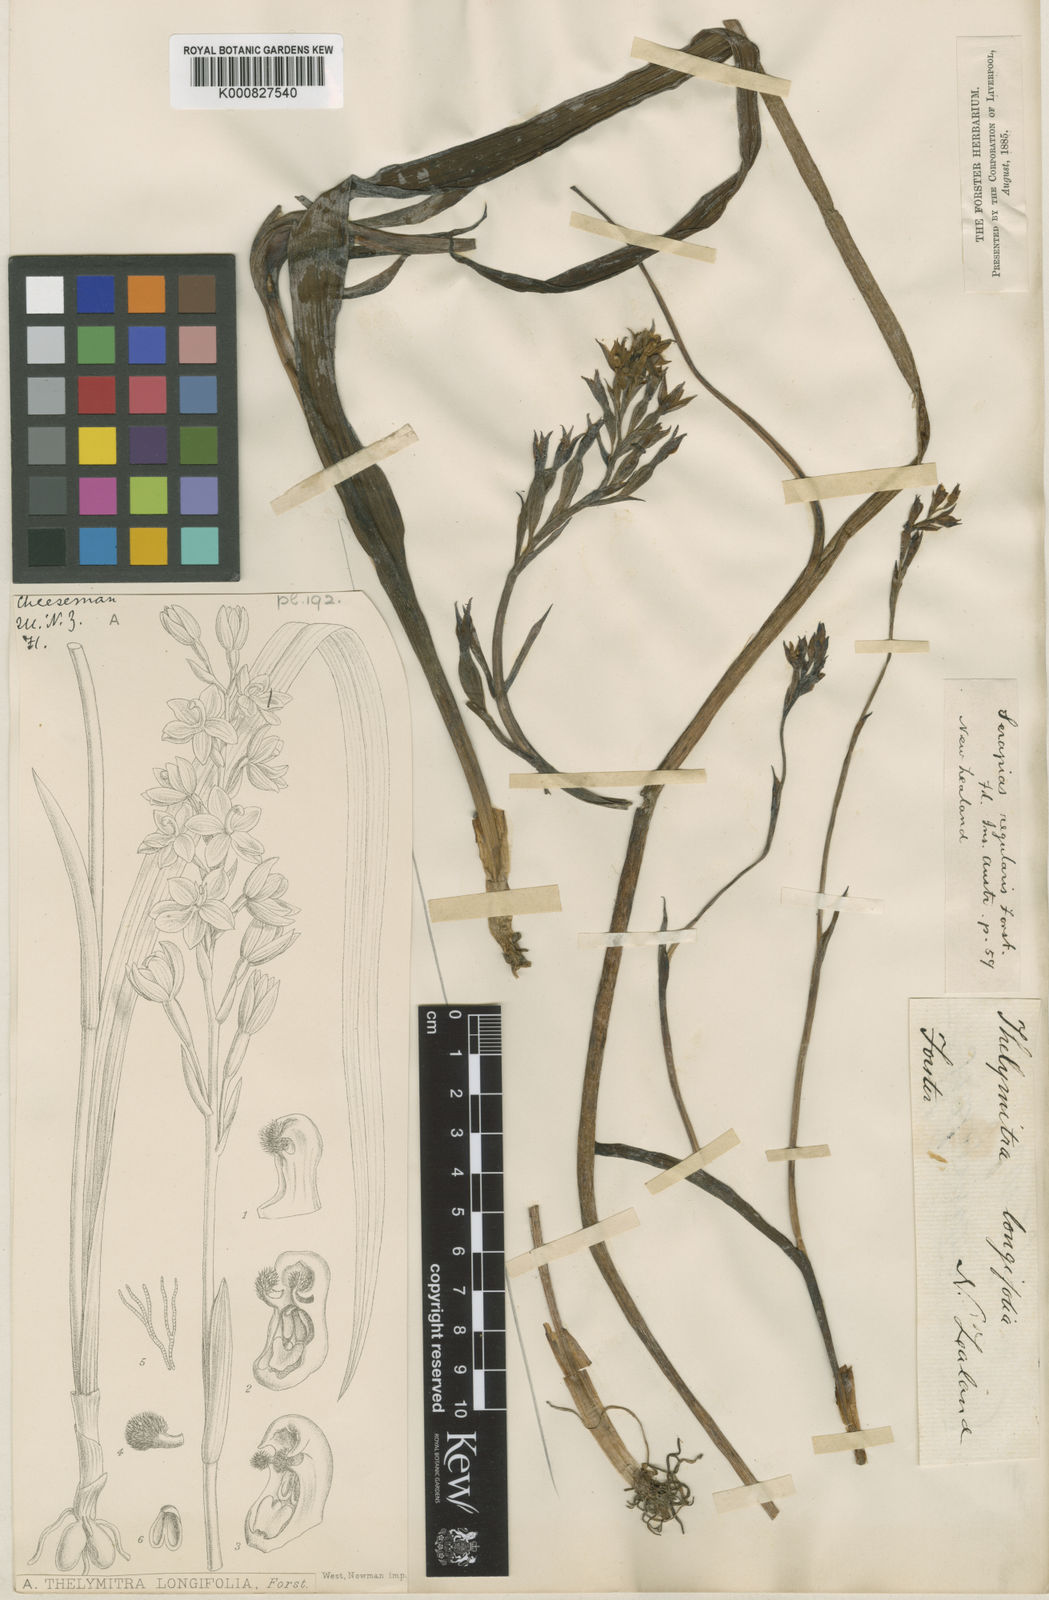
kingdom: Plantae
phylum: Tracheophyta
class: Liliopsida
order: Asparagales
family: Orchidaceae
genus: Thelymitra
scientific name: Thelymitra longifolia
